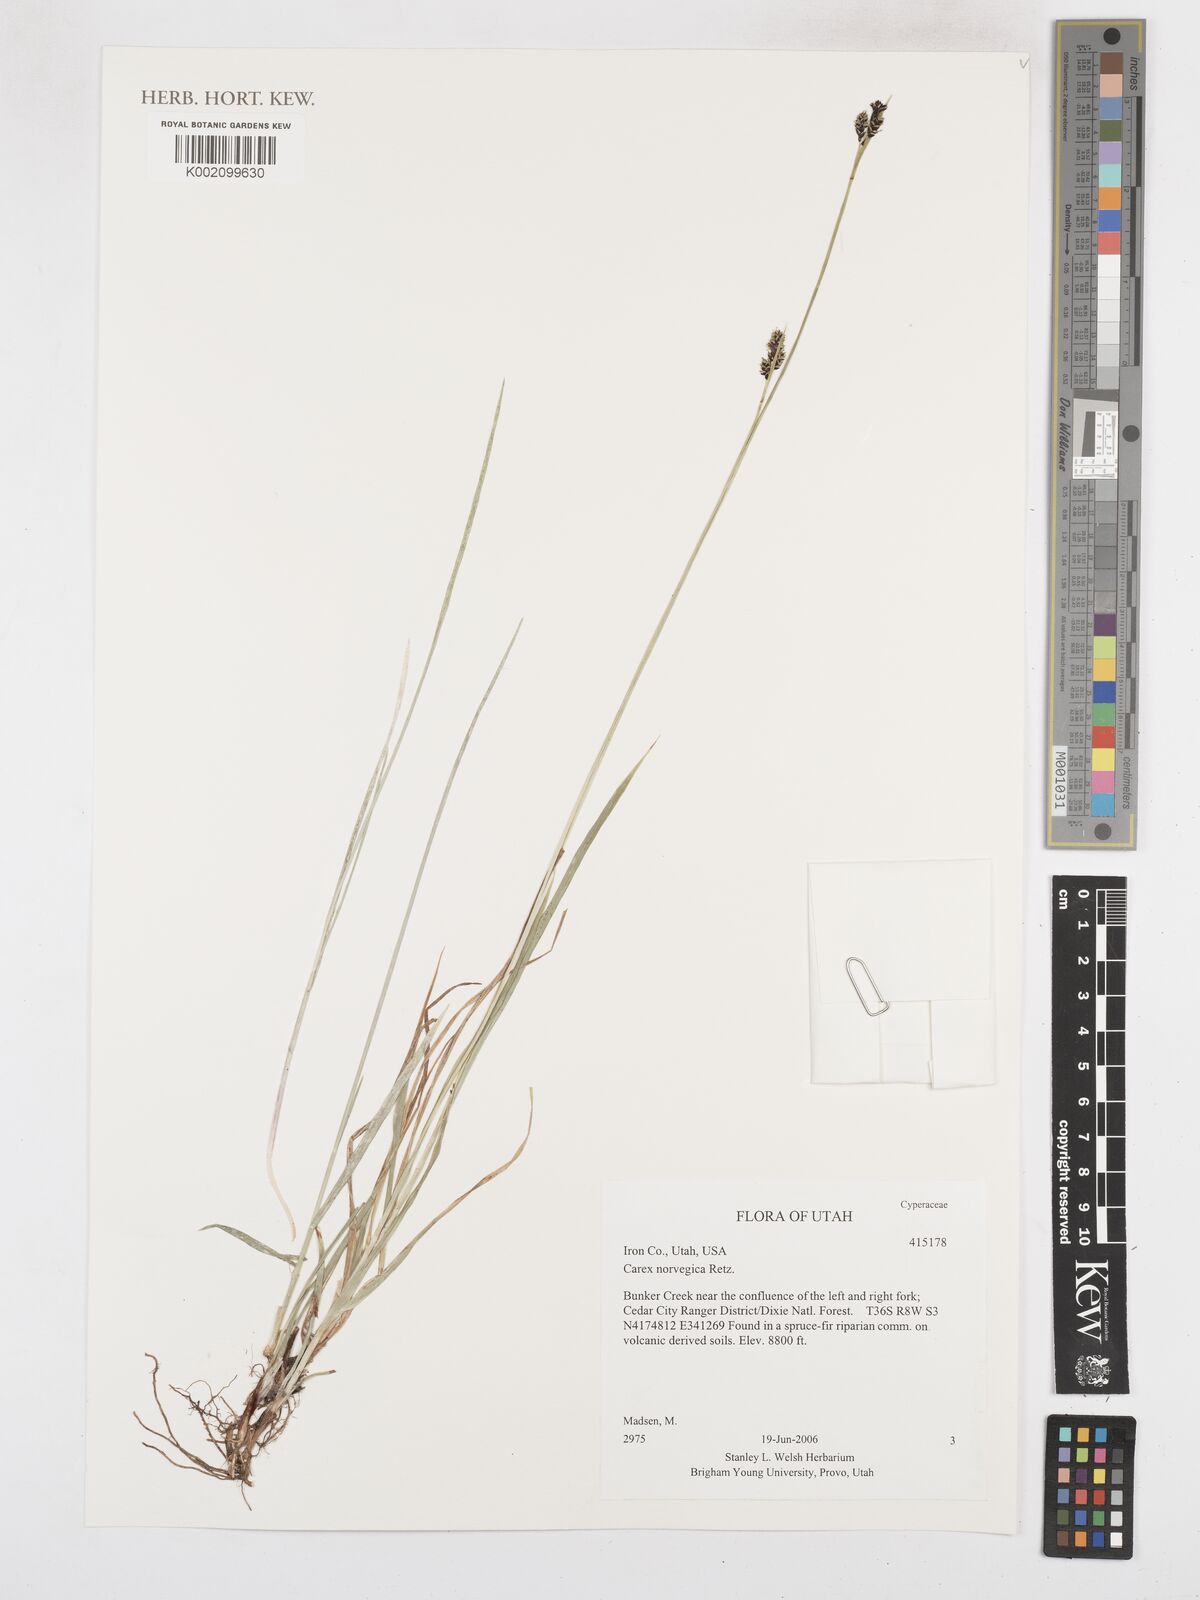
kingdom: Plantae
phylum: Tracheophyta
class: Liliopsida
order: Poales
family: Cyperaceae
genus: Carex
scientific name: Carex mackenziei
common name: Mackenzie's sedge
